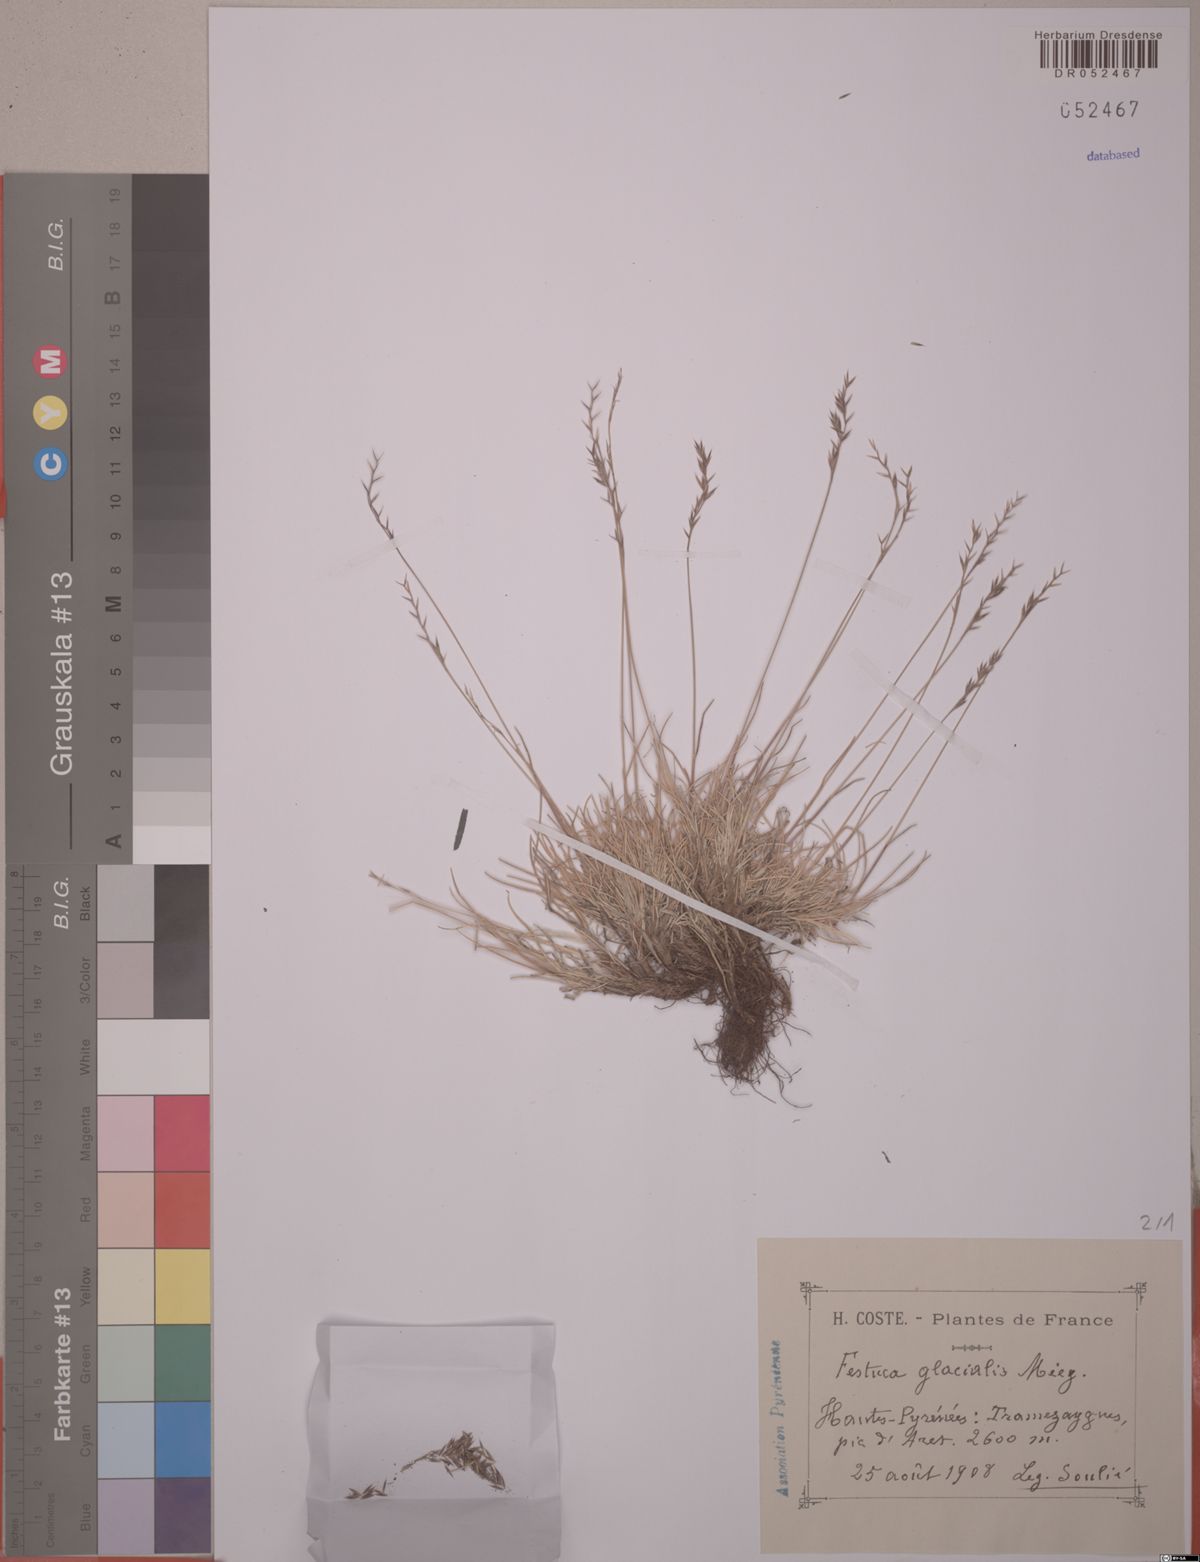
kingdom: Plantae
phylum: Tracheophyta
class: Liliopsida
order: Poales
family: Poaceae
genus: Festuca
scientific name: Festuca glacialis
